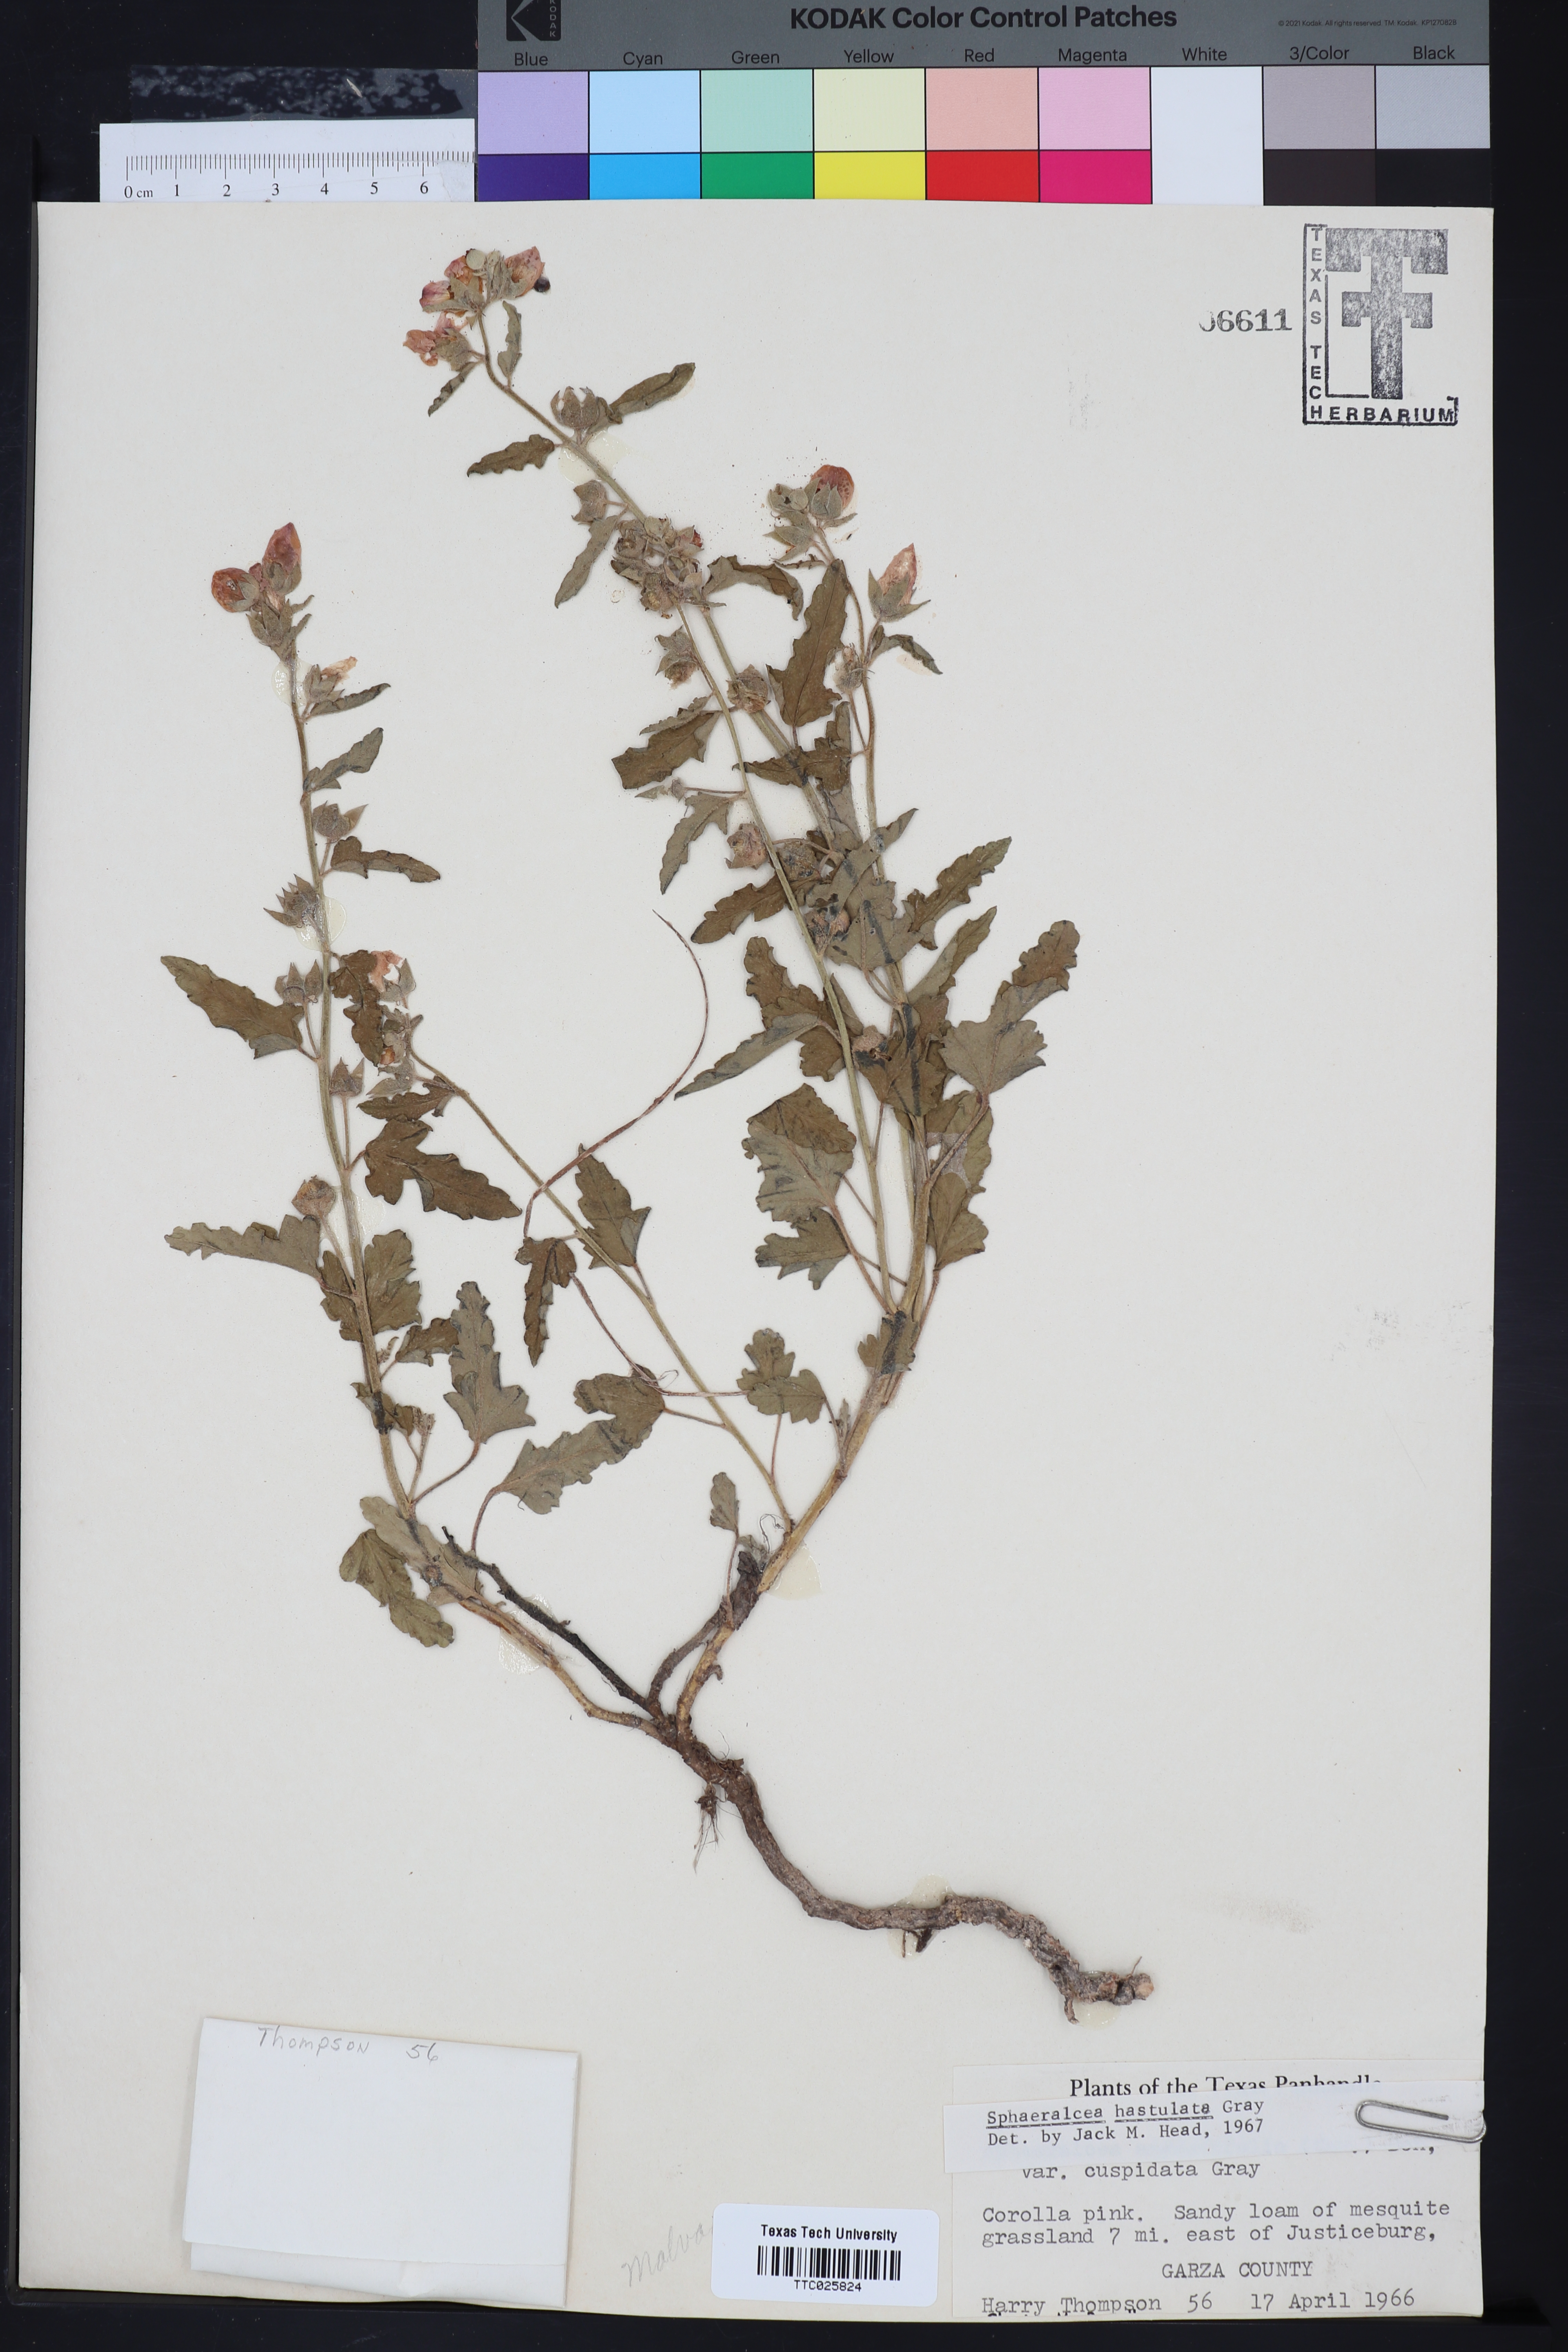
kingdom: Plantae
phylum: Tracheophyta
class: Magnoliopsida
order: Malvales
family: Malvaceae
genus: Sphaeralcea
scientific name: Sphaeralcea hastulata
